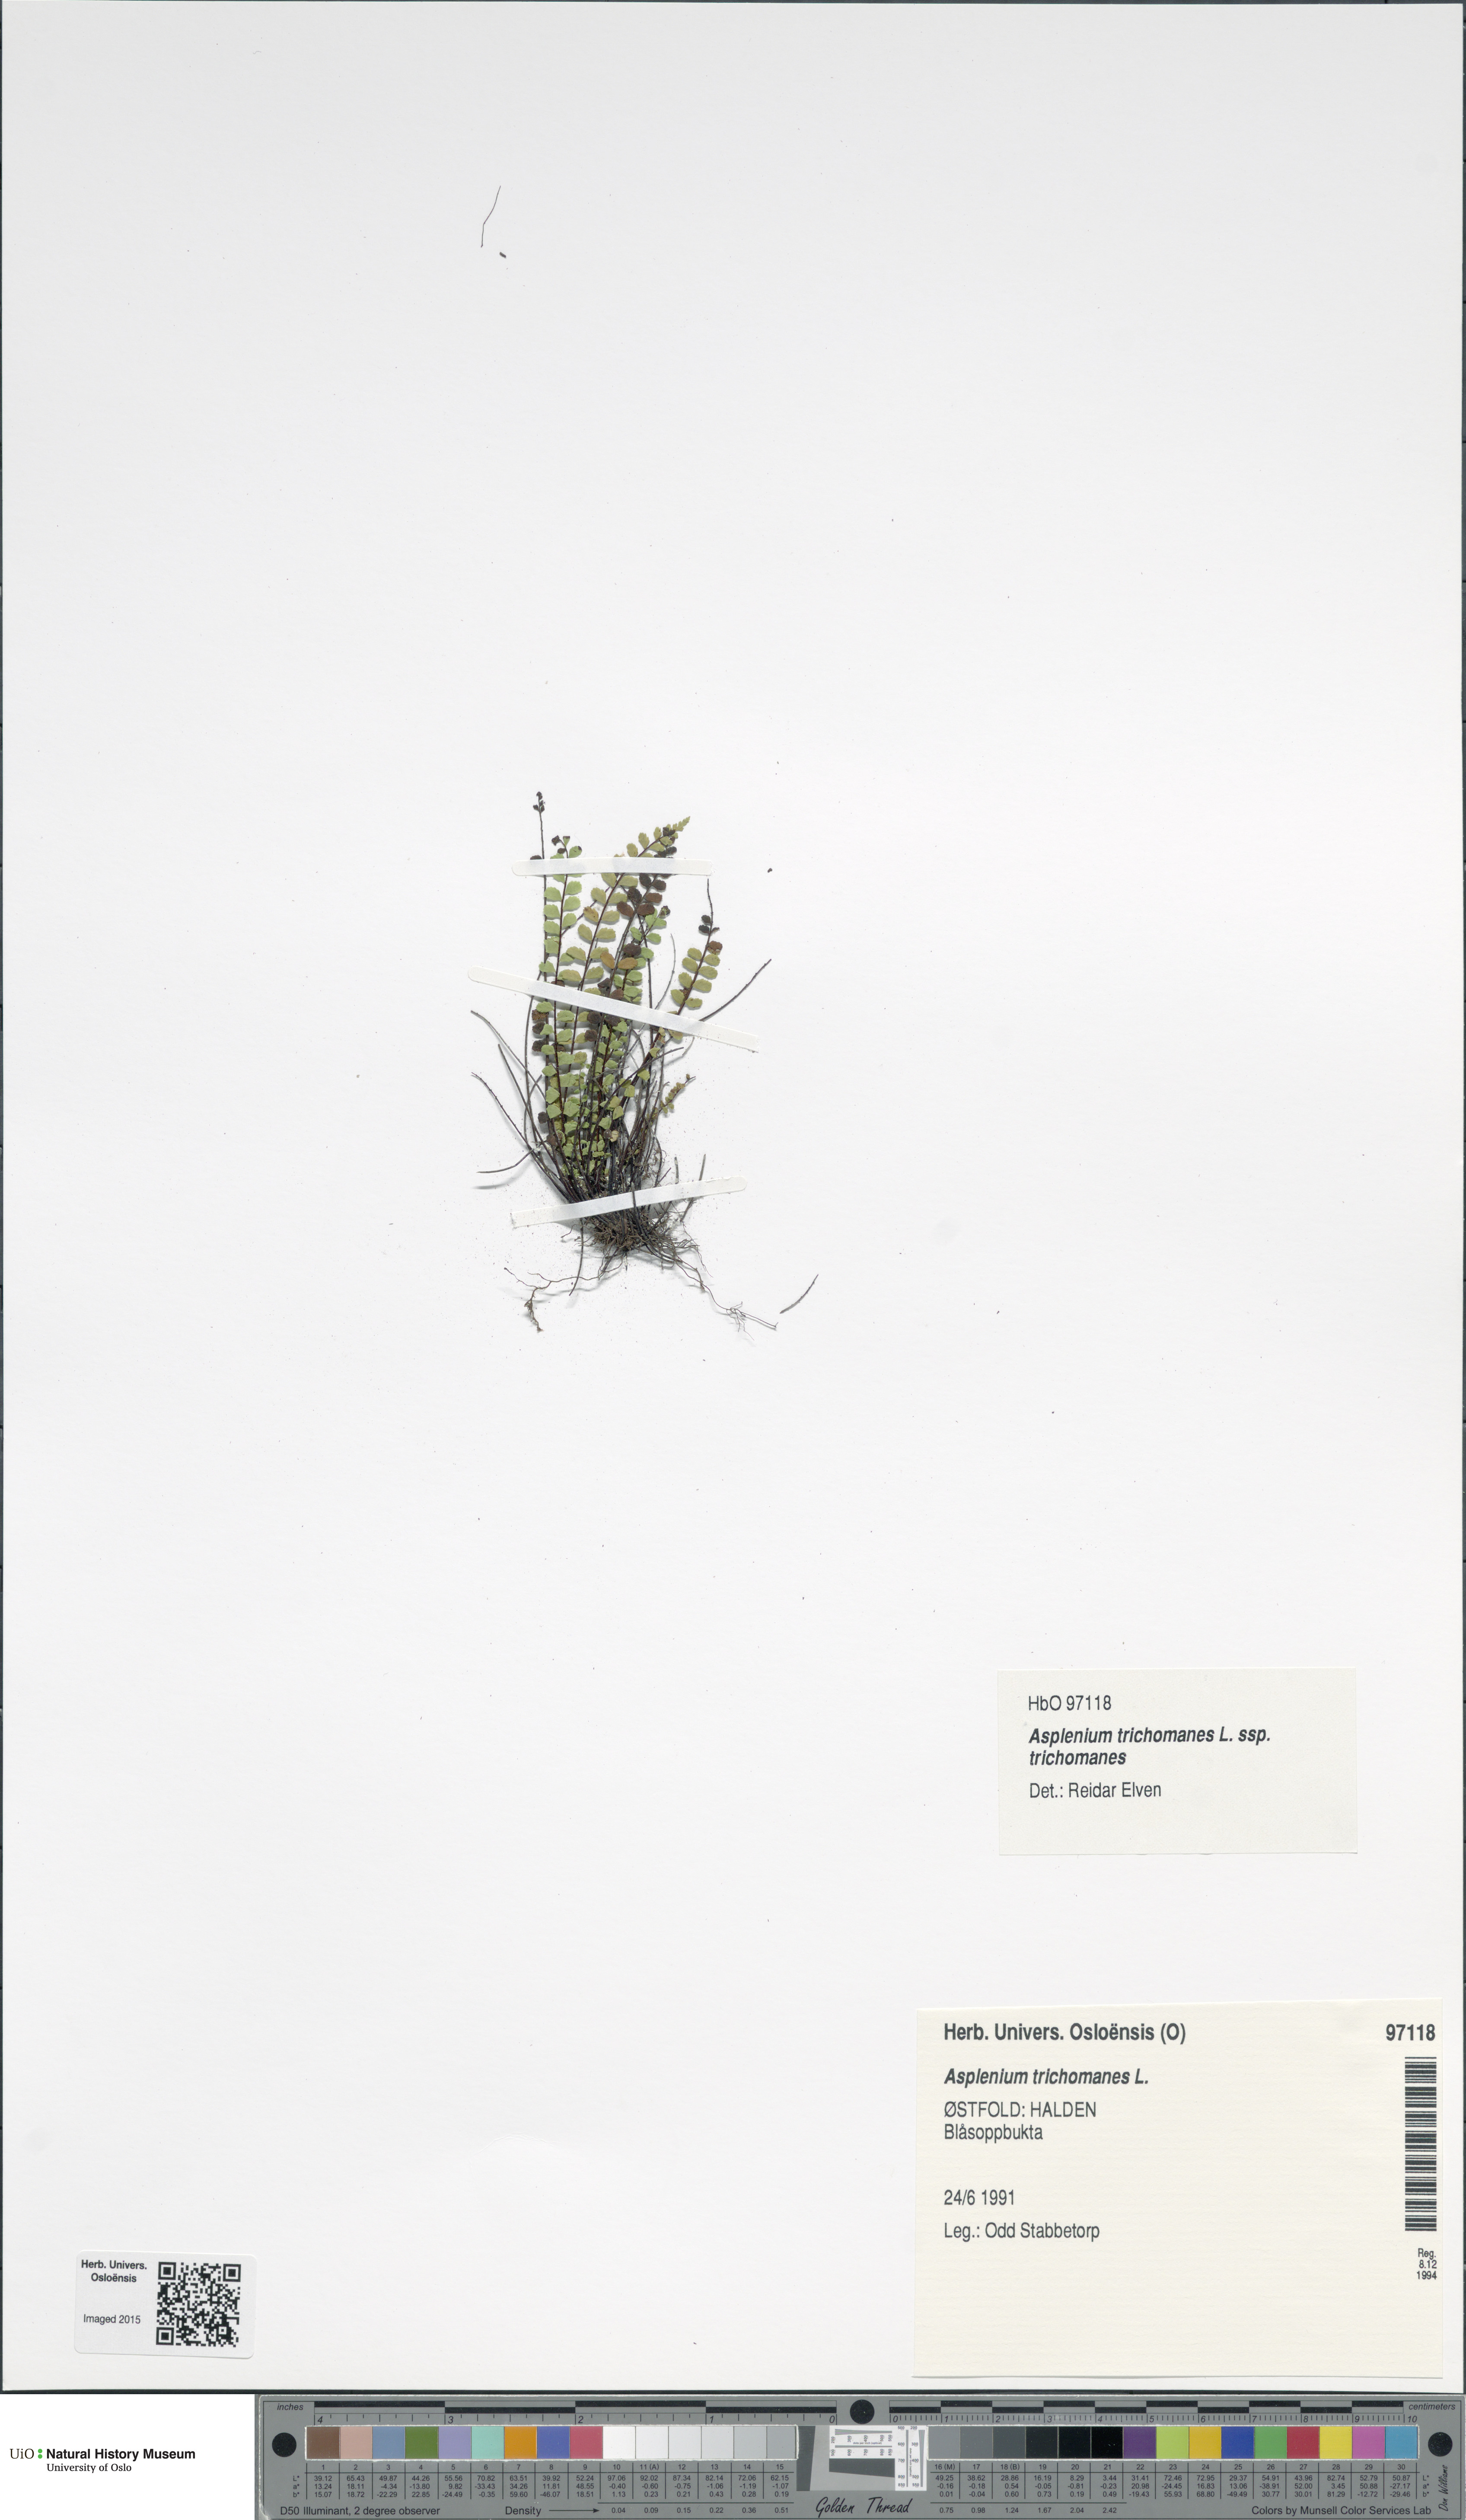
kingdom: Plantae
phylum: Tracheophyta
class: Polypodiopsida
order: Polypodiales
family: Aspleniaceae
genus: Asplenium
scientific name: Asplenium trichomanes
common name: Maidenhair spleenwort
